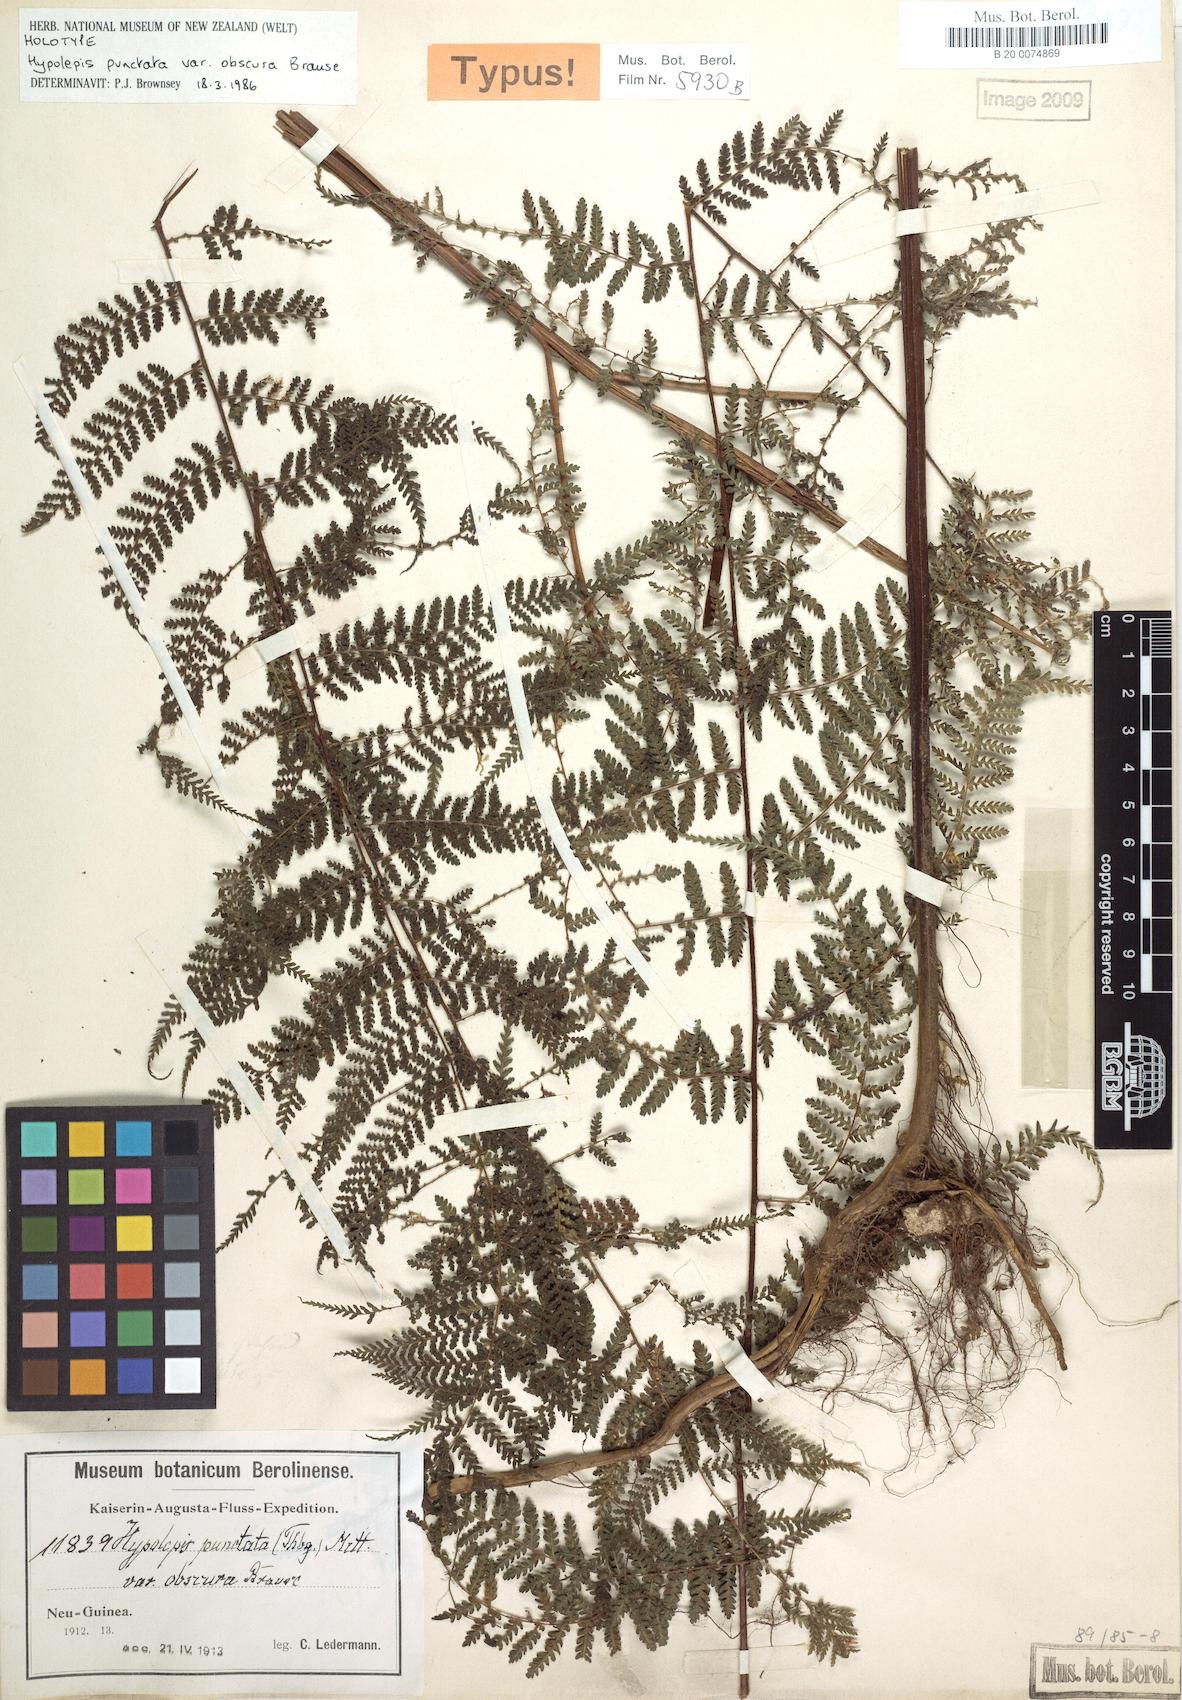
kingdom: Plantae
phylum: Tracheophyta
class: Polypodiopsida
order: Polypodiales
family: Dennstaedtiaceae
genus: Hypolepis
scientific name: Hypolepis bamleriana
